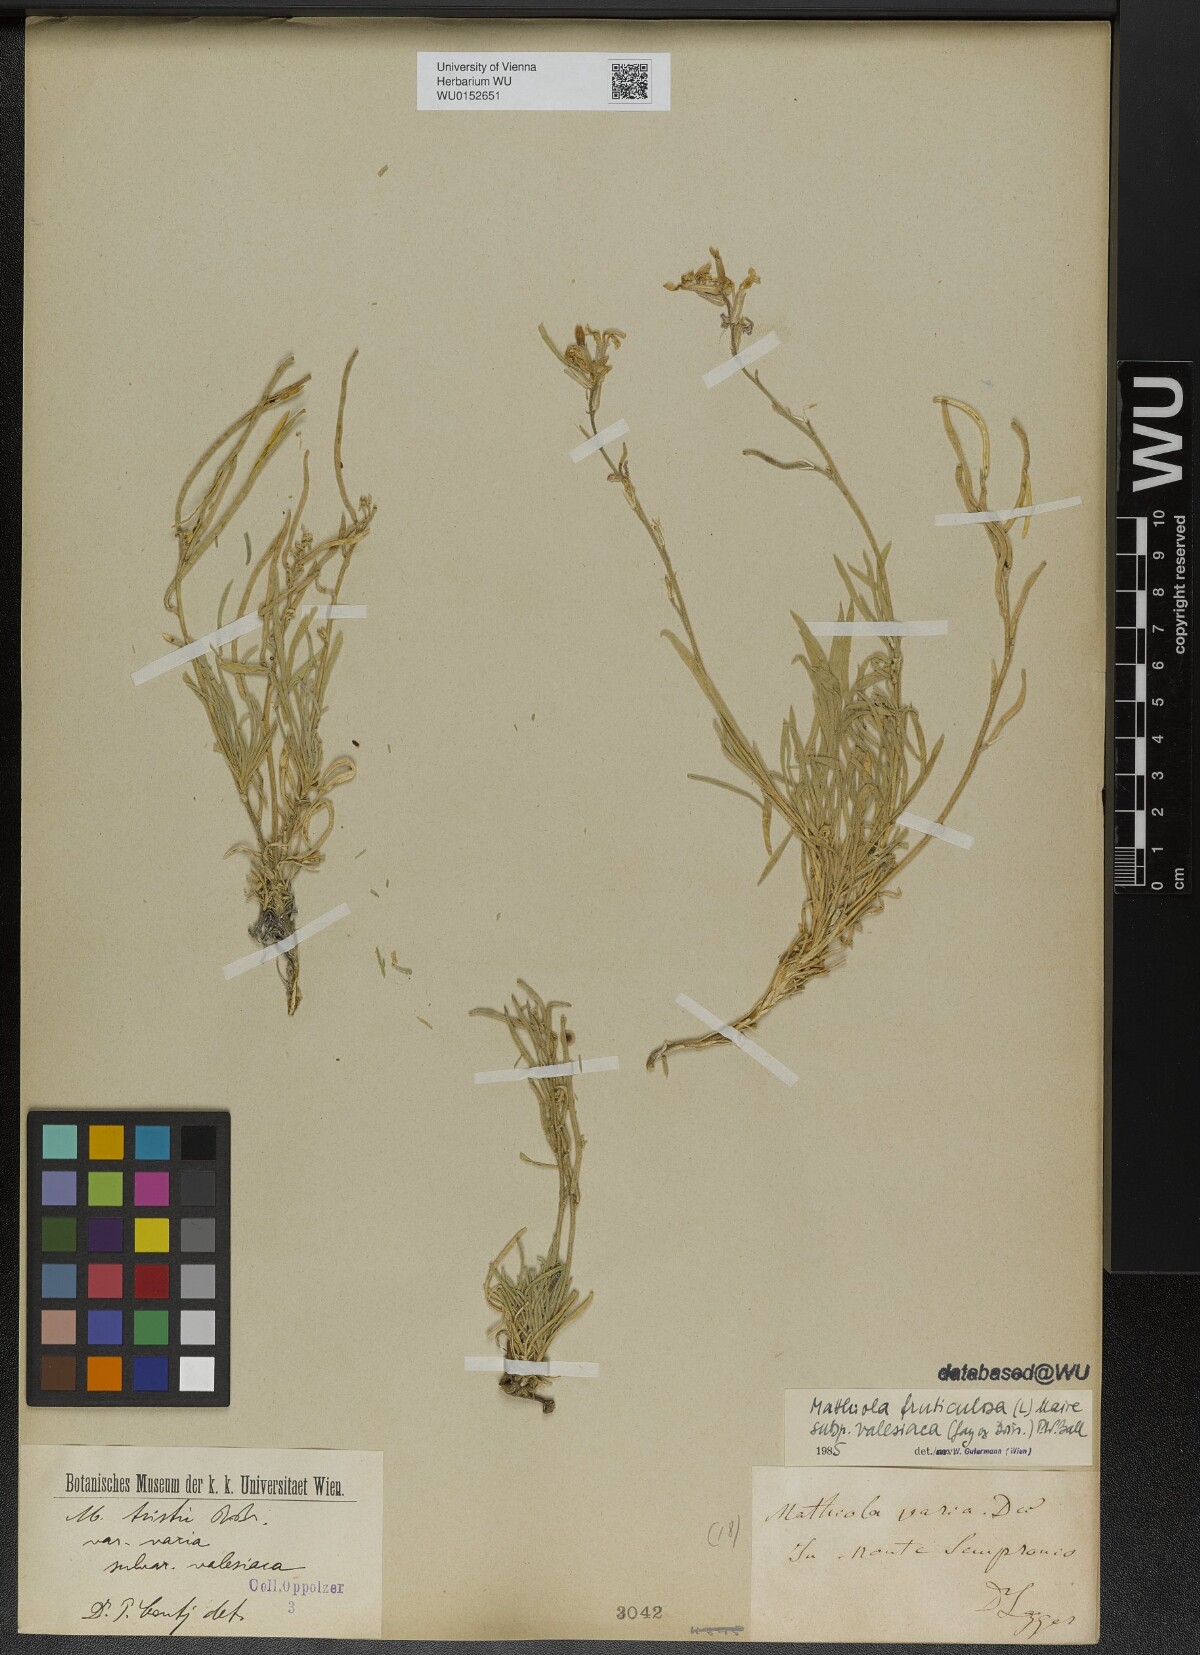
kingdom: Plantae
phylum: Tracheophyta
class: Magnoliopsida
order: Brassicales
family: Brassicaceae
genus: Matthiola
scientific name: Matthiola fruticulosa
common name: Sad stock
